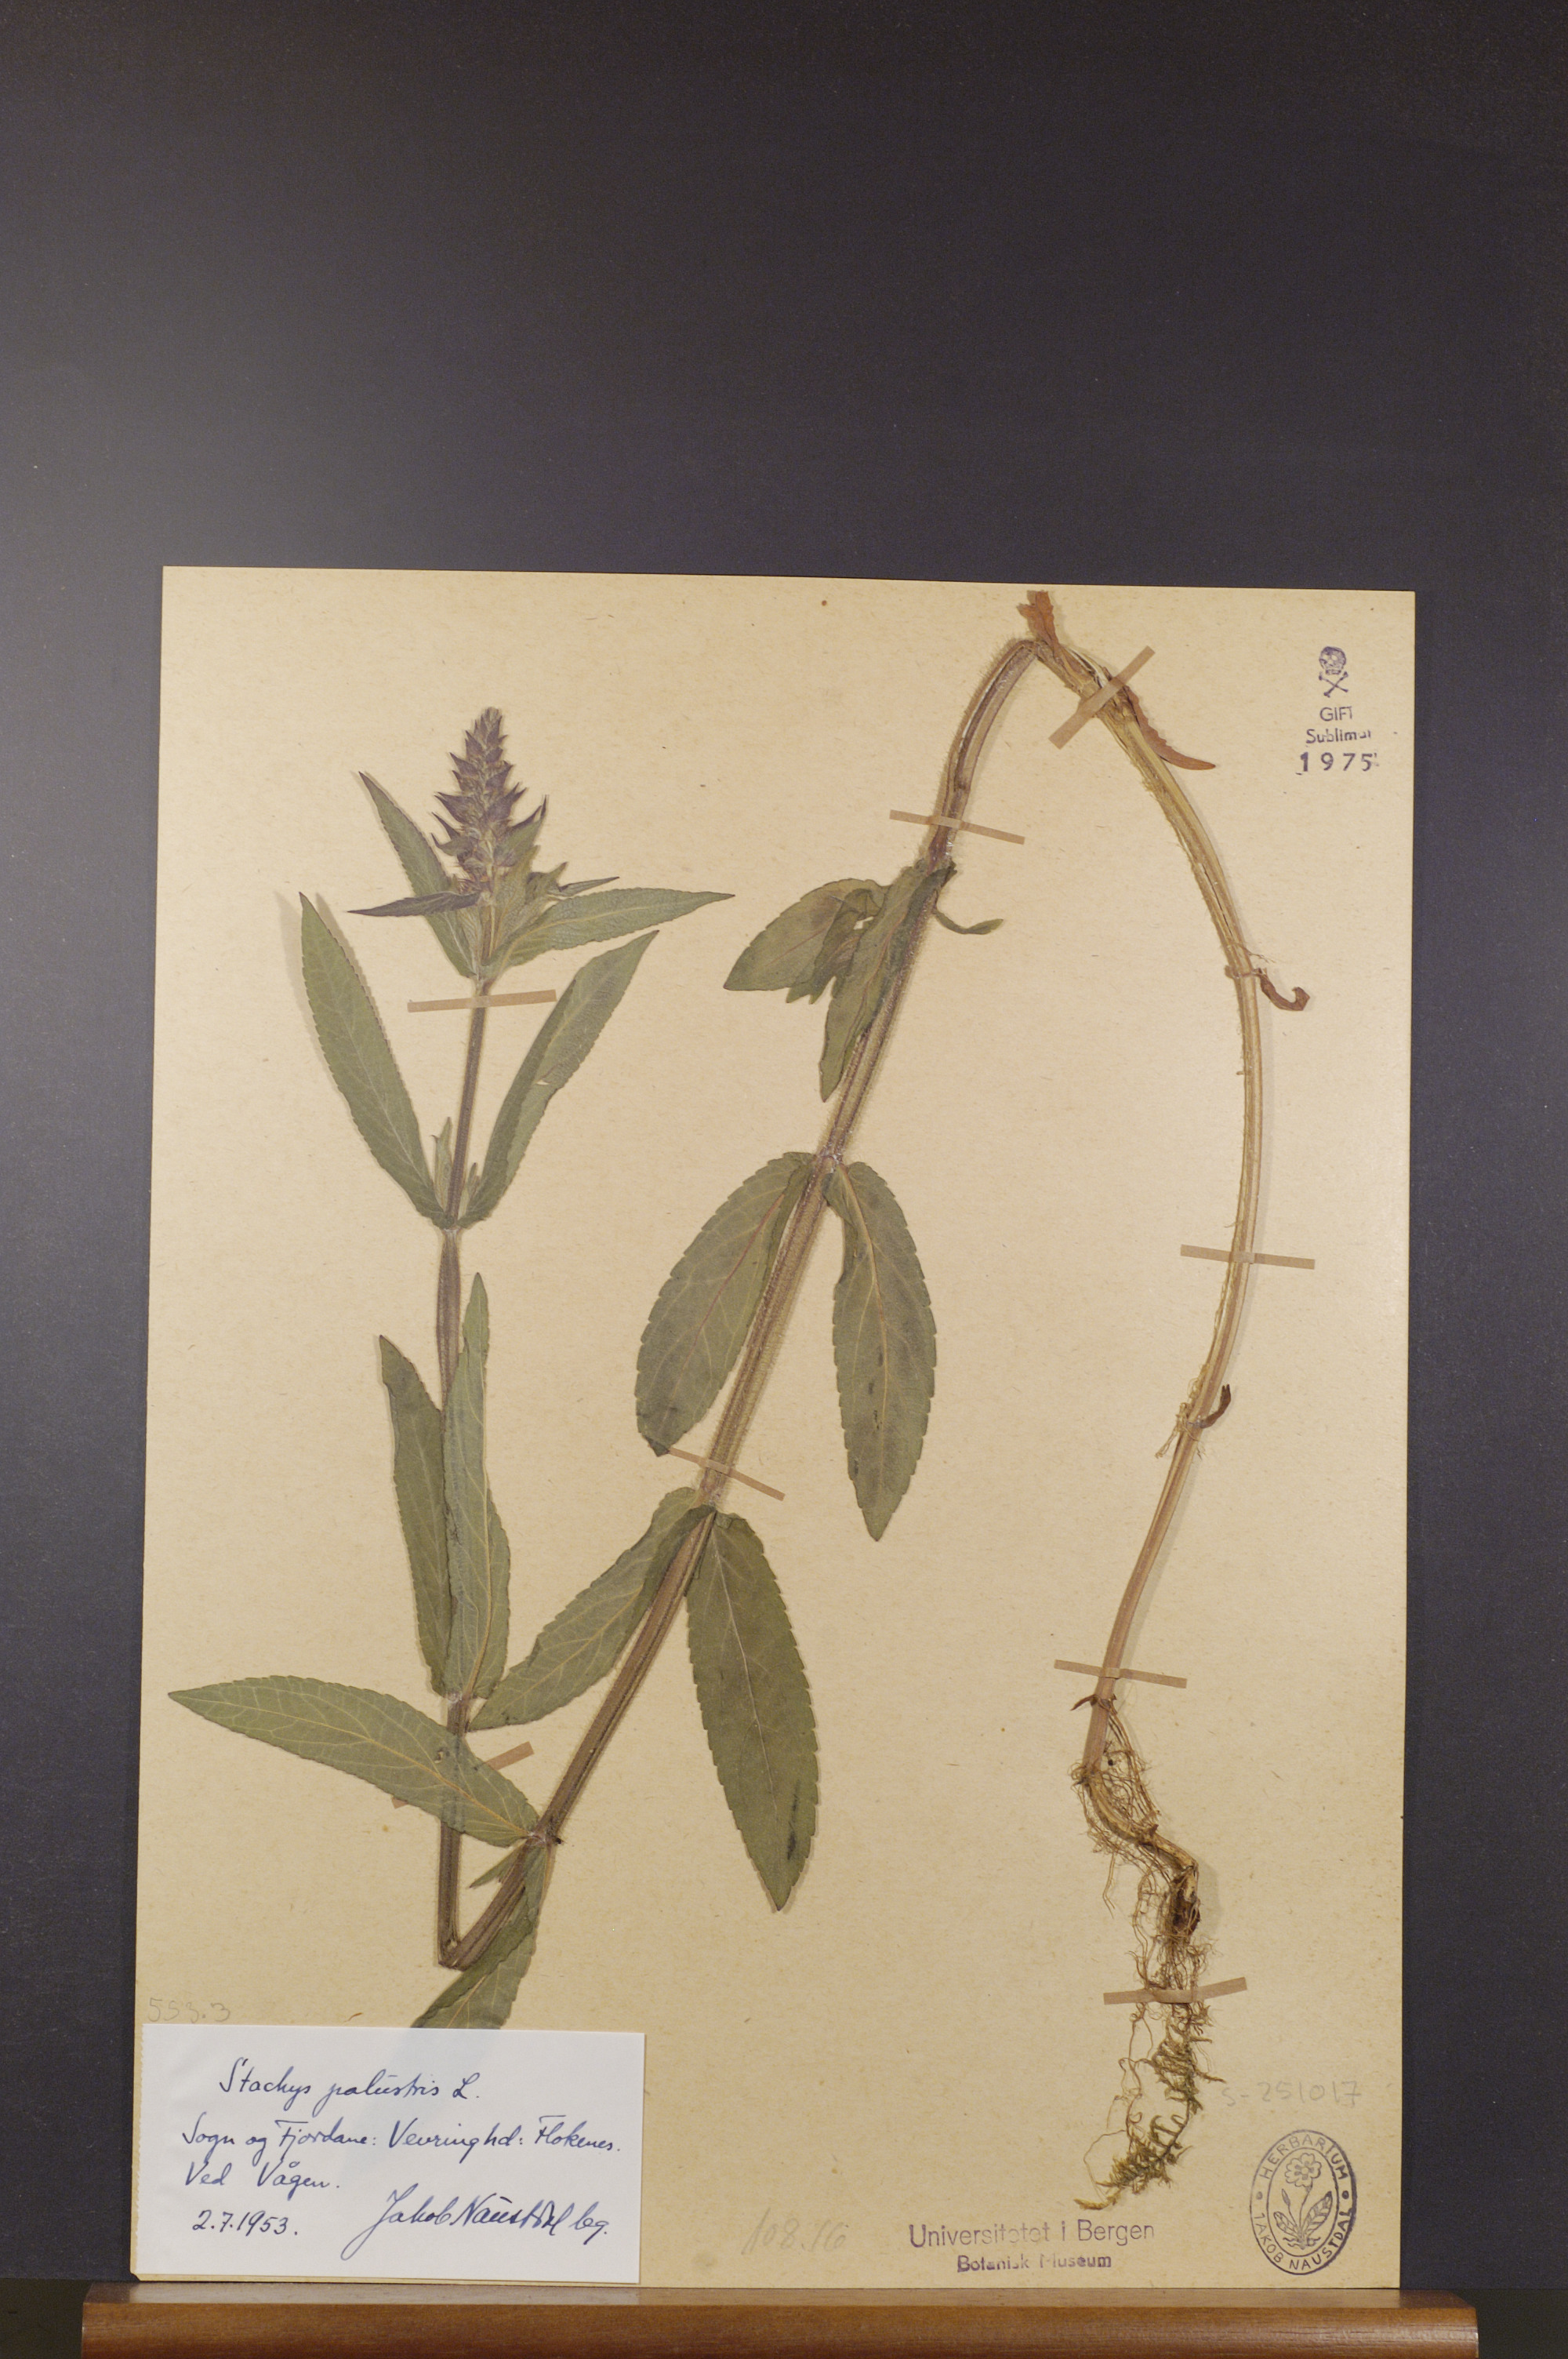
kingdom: Plantae
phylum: Tracheophyta
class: Magnoliopsida
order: Lamiales
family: Lamiaceae
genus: Stachys
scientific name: Stachys palustris
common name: Marsh woundwort
